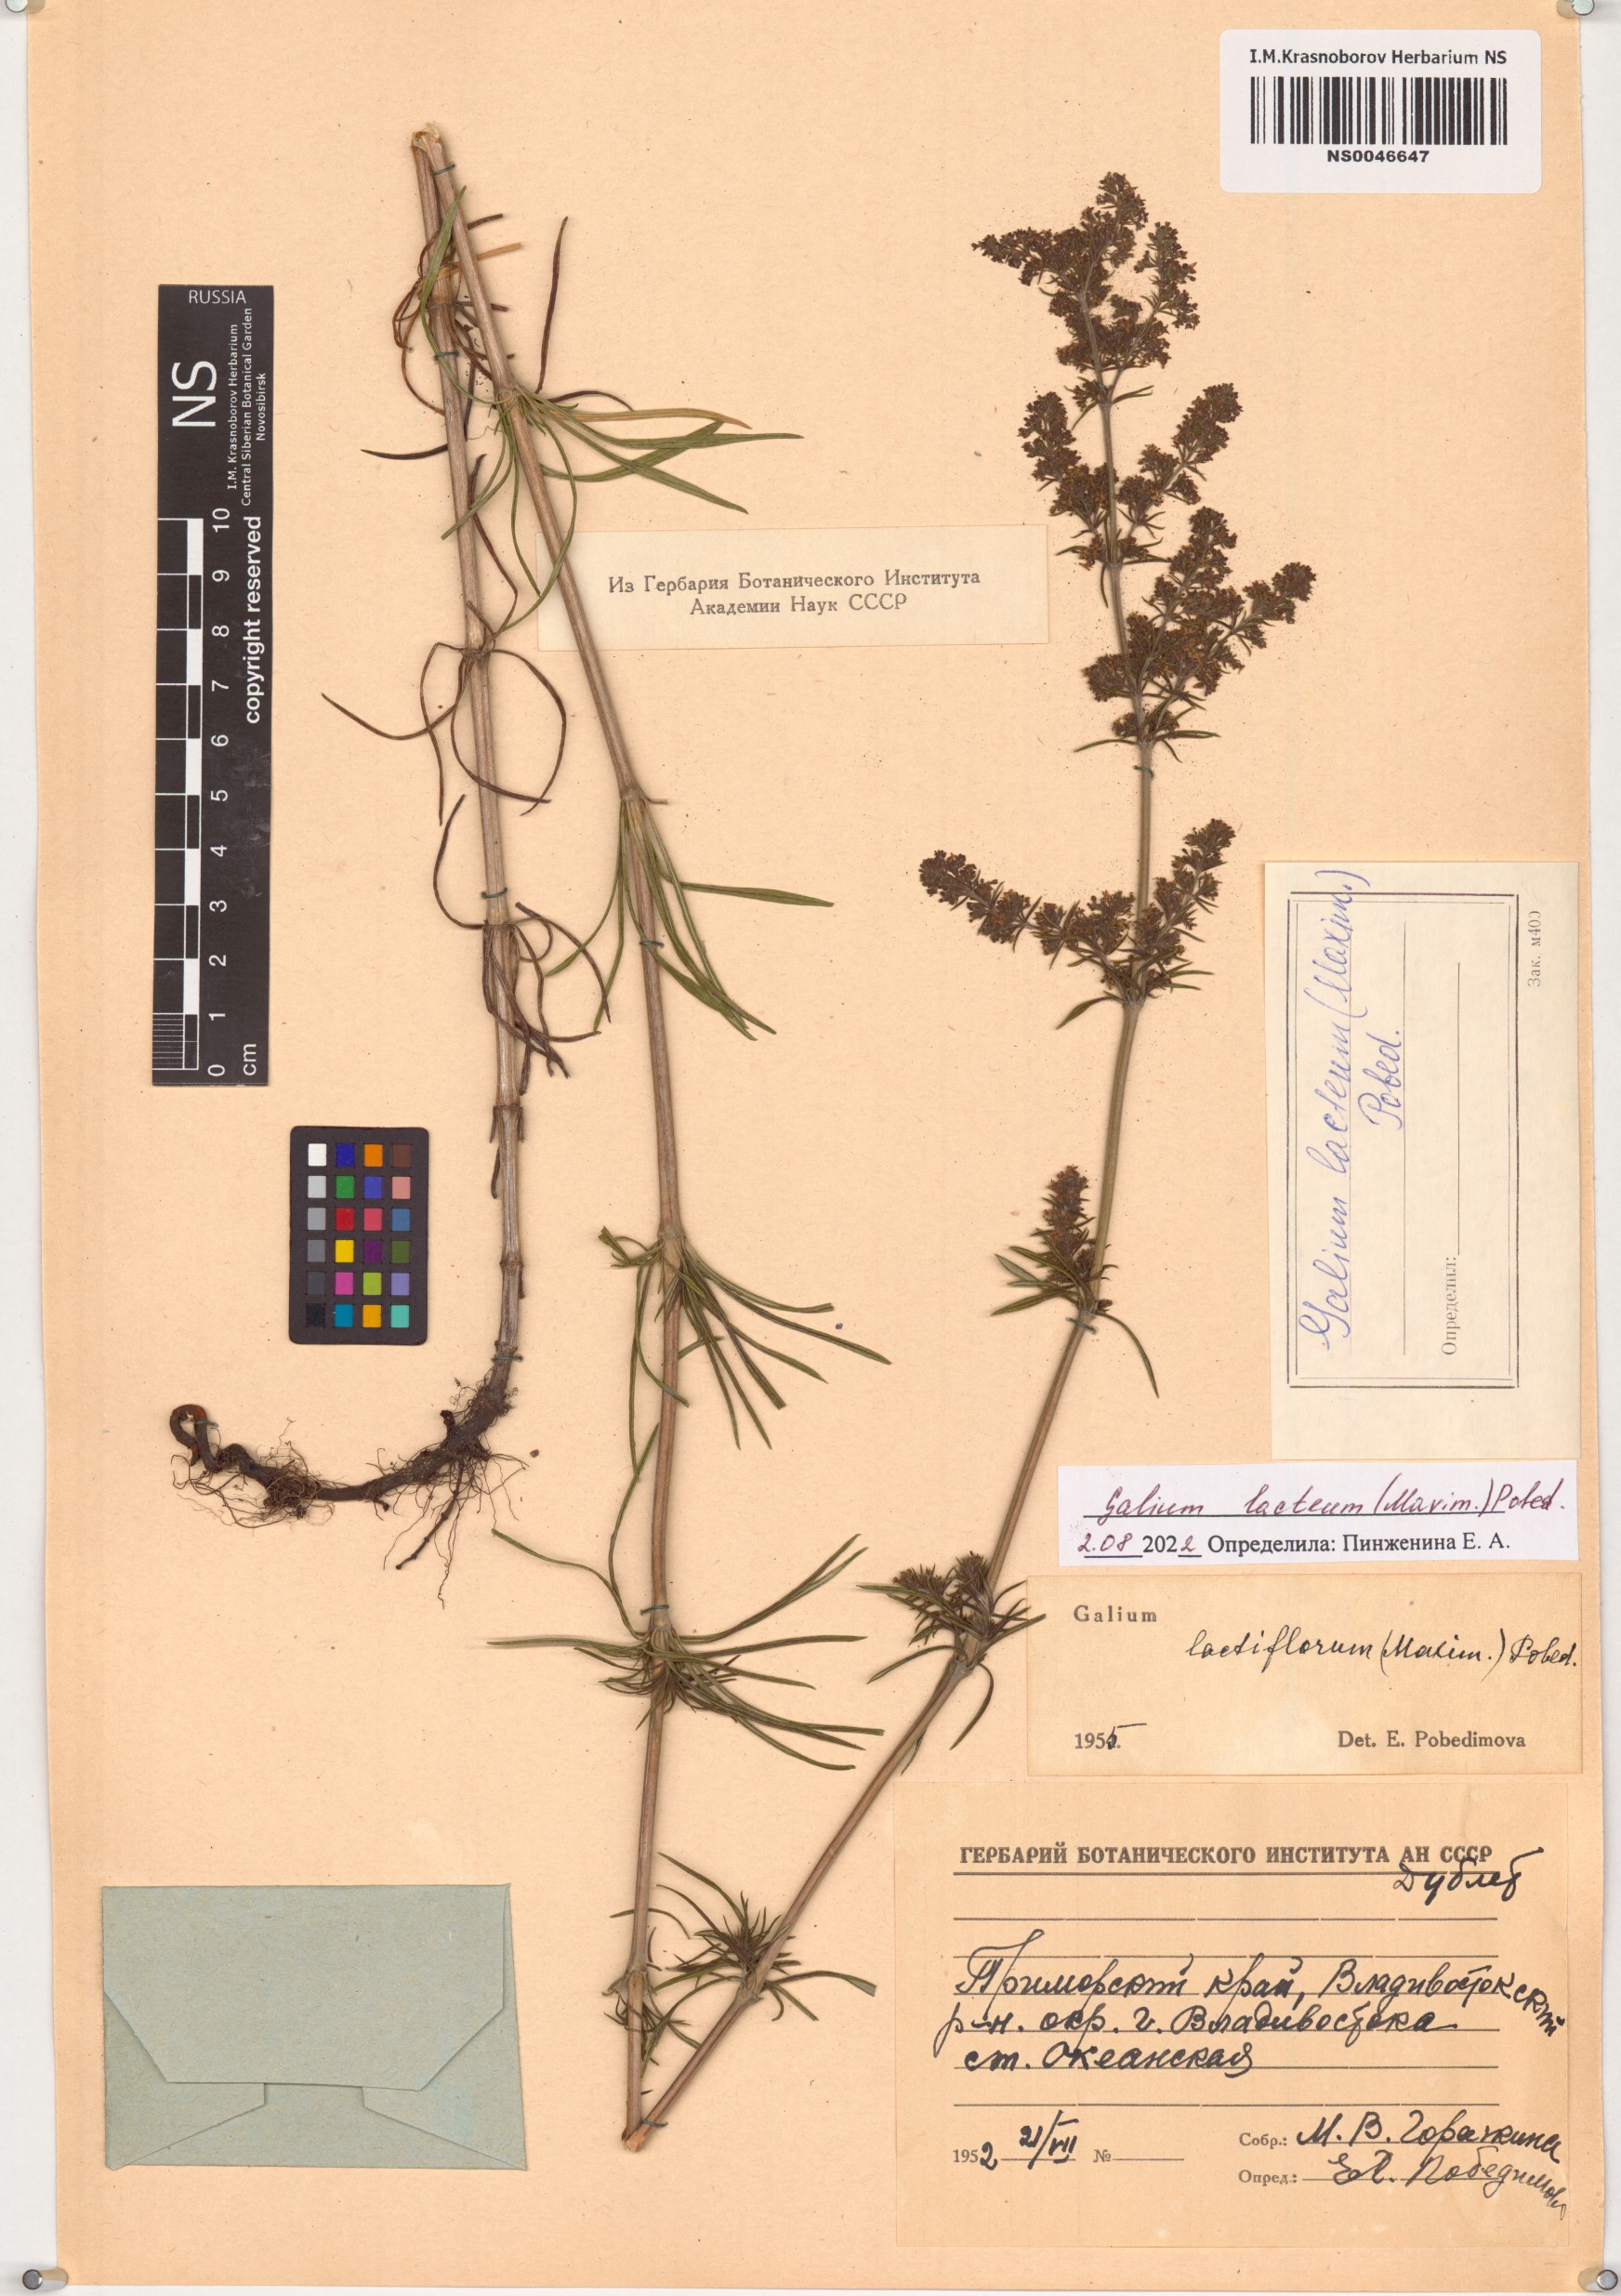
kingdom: Plantae
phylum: Tracheophyta
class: Magnoliopsida
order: Gentianales
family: Rubiaceae
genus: Galium
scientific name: Galium verum
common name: Lady's bedstraw
